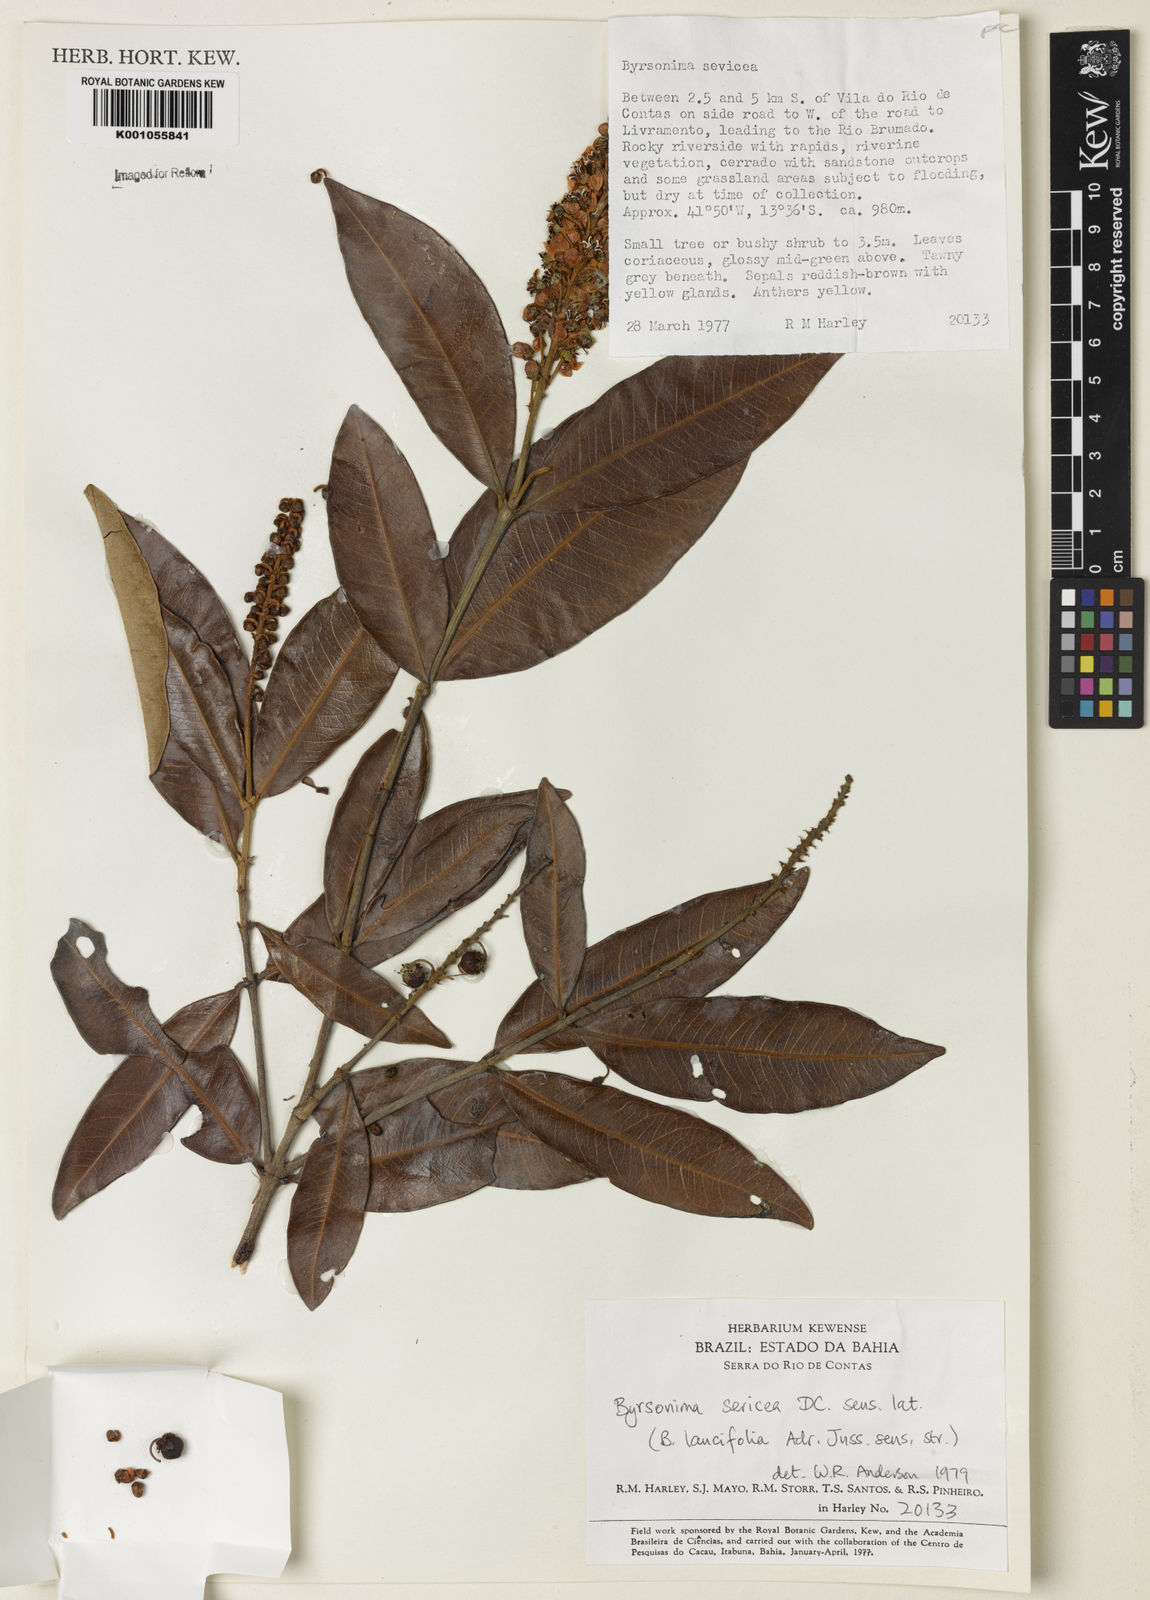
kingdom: Plantae
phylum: Tracheophyta
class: Magnoliopsida
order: Malpighiales
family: Malpighiaceae
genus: Byrsonima
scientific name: Byrsonima sericea
